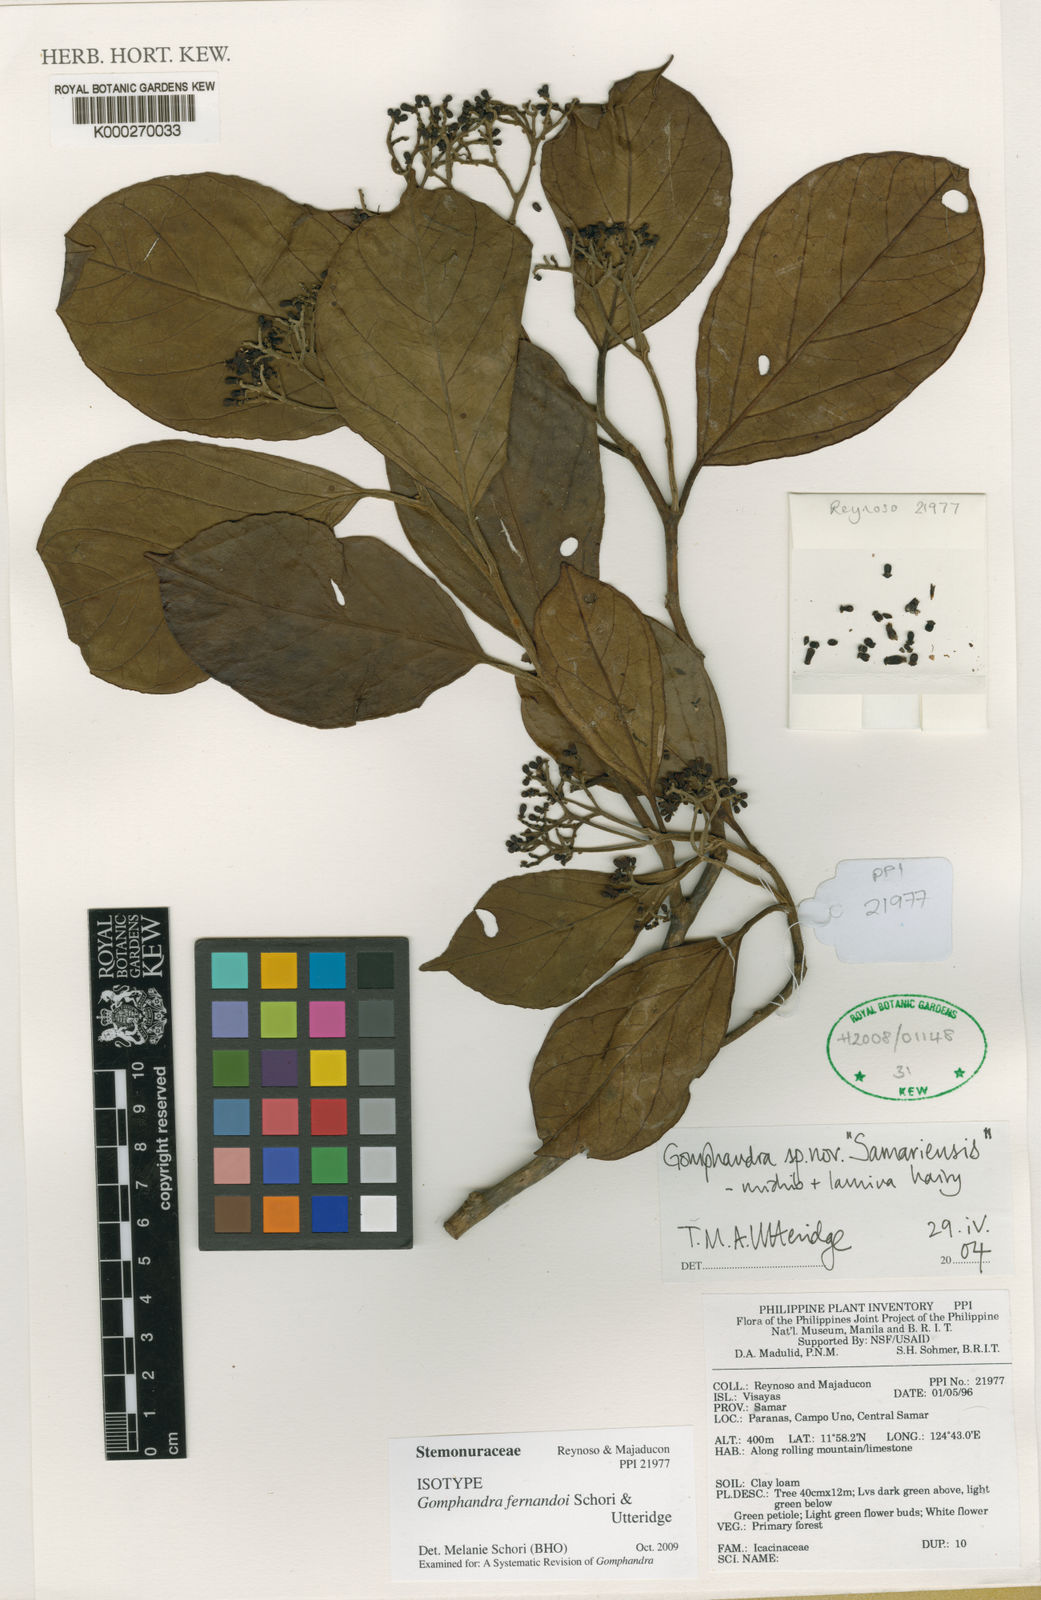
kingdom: Plantae
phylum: Tracheophyta
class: Magnoliopsida
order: Cardiopteridales
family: Stemonuraceae
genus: Gomphandra
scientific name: Gomphandra luzoniensis
